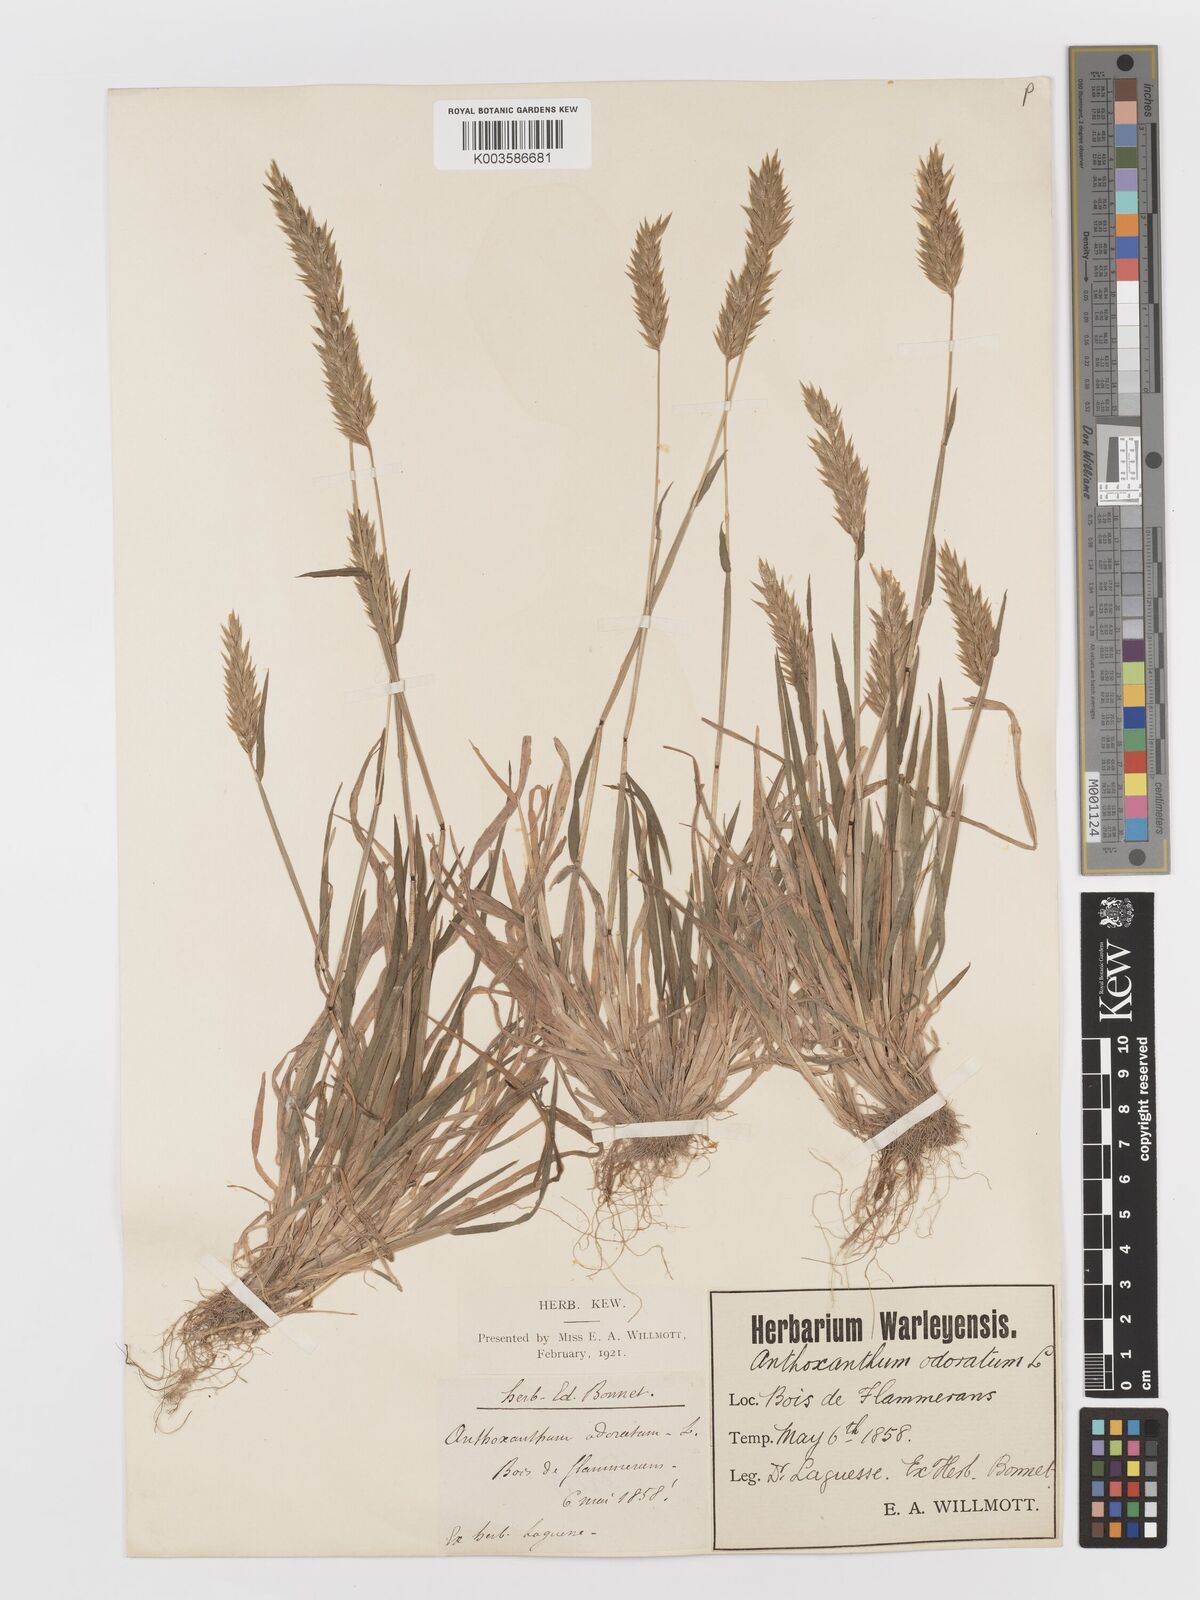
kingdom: Plantae
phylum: Tracheophyta
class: Liliopsida
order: Poales
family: Poaceae
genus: Anthoxanthum
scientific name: Anthoxanthum odoratum
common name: Sweet vernalgrass
